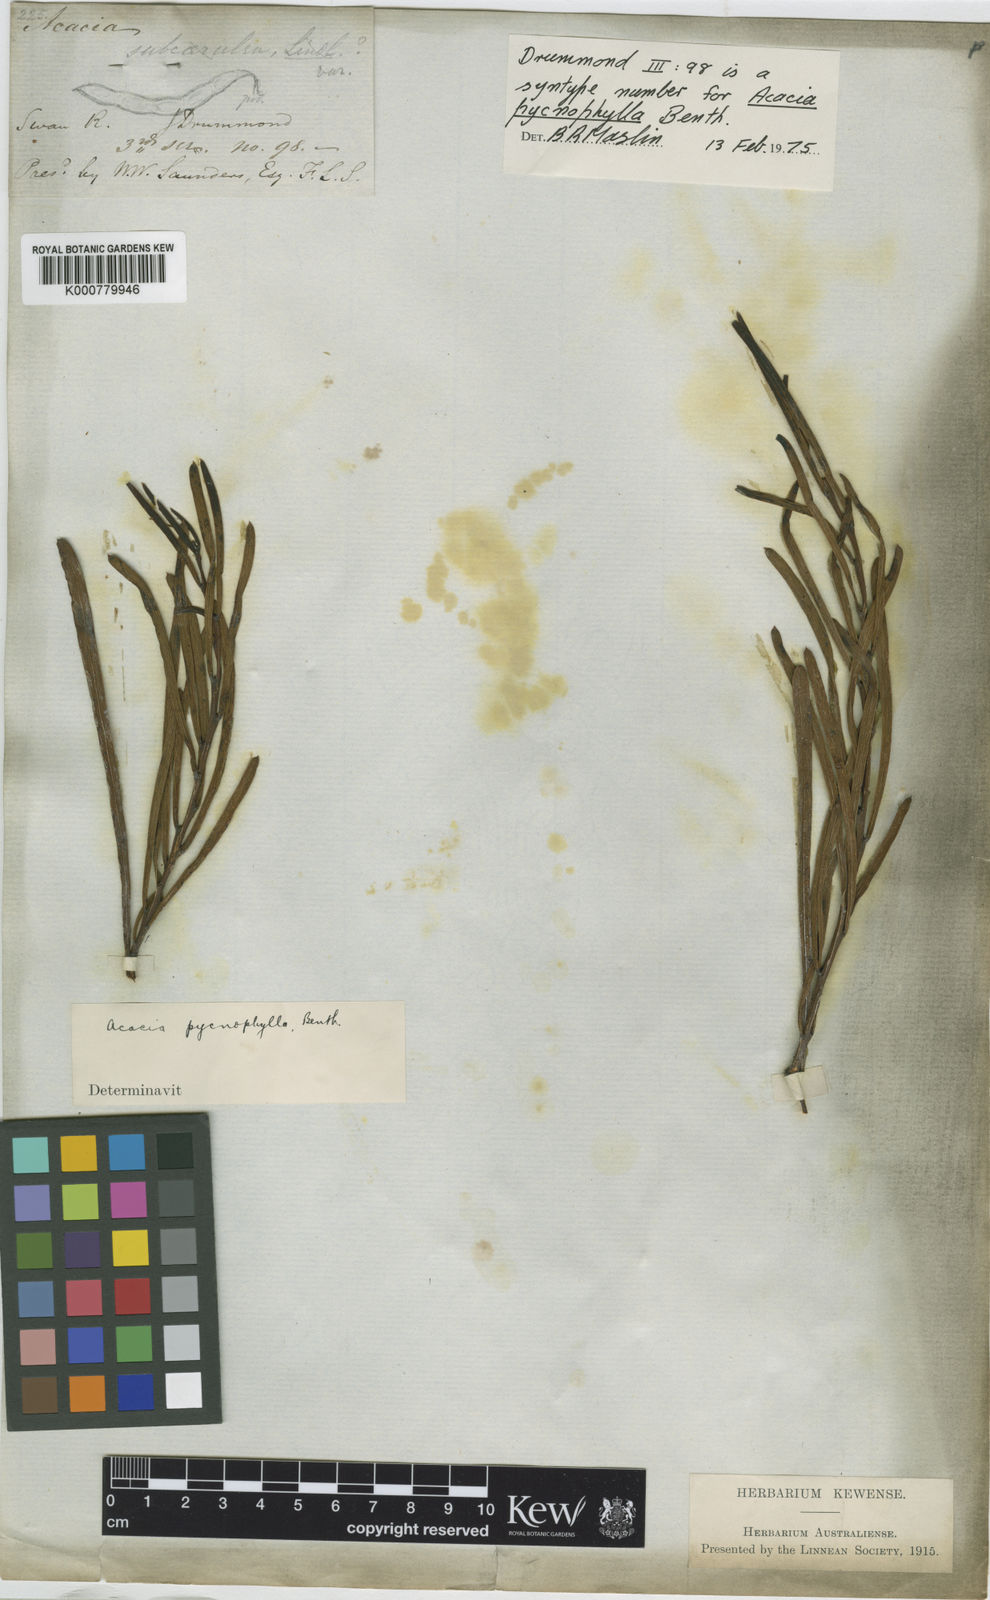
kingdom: Plantae
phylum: Tracheophyta
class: Magnoliopsida
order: Fabales
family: Fabaceae
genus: Acacia
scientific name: Acacia crassiuscula
